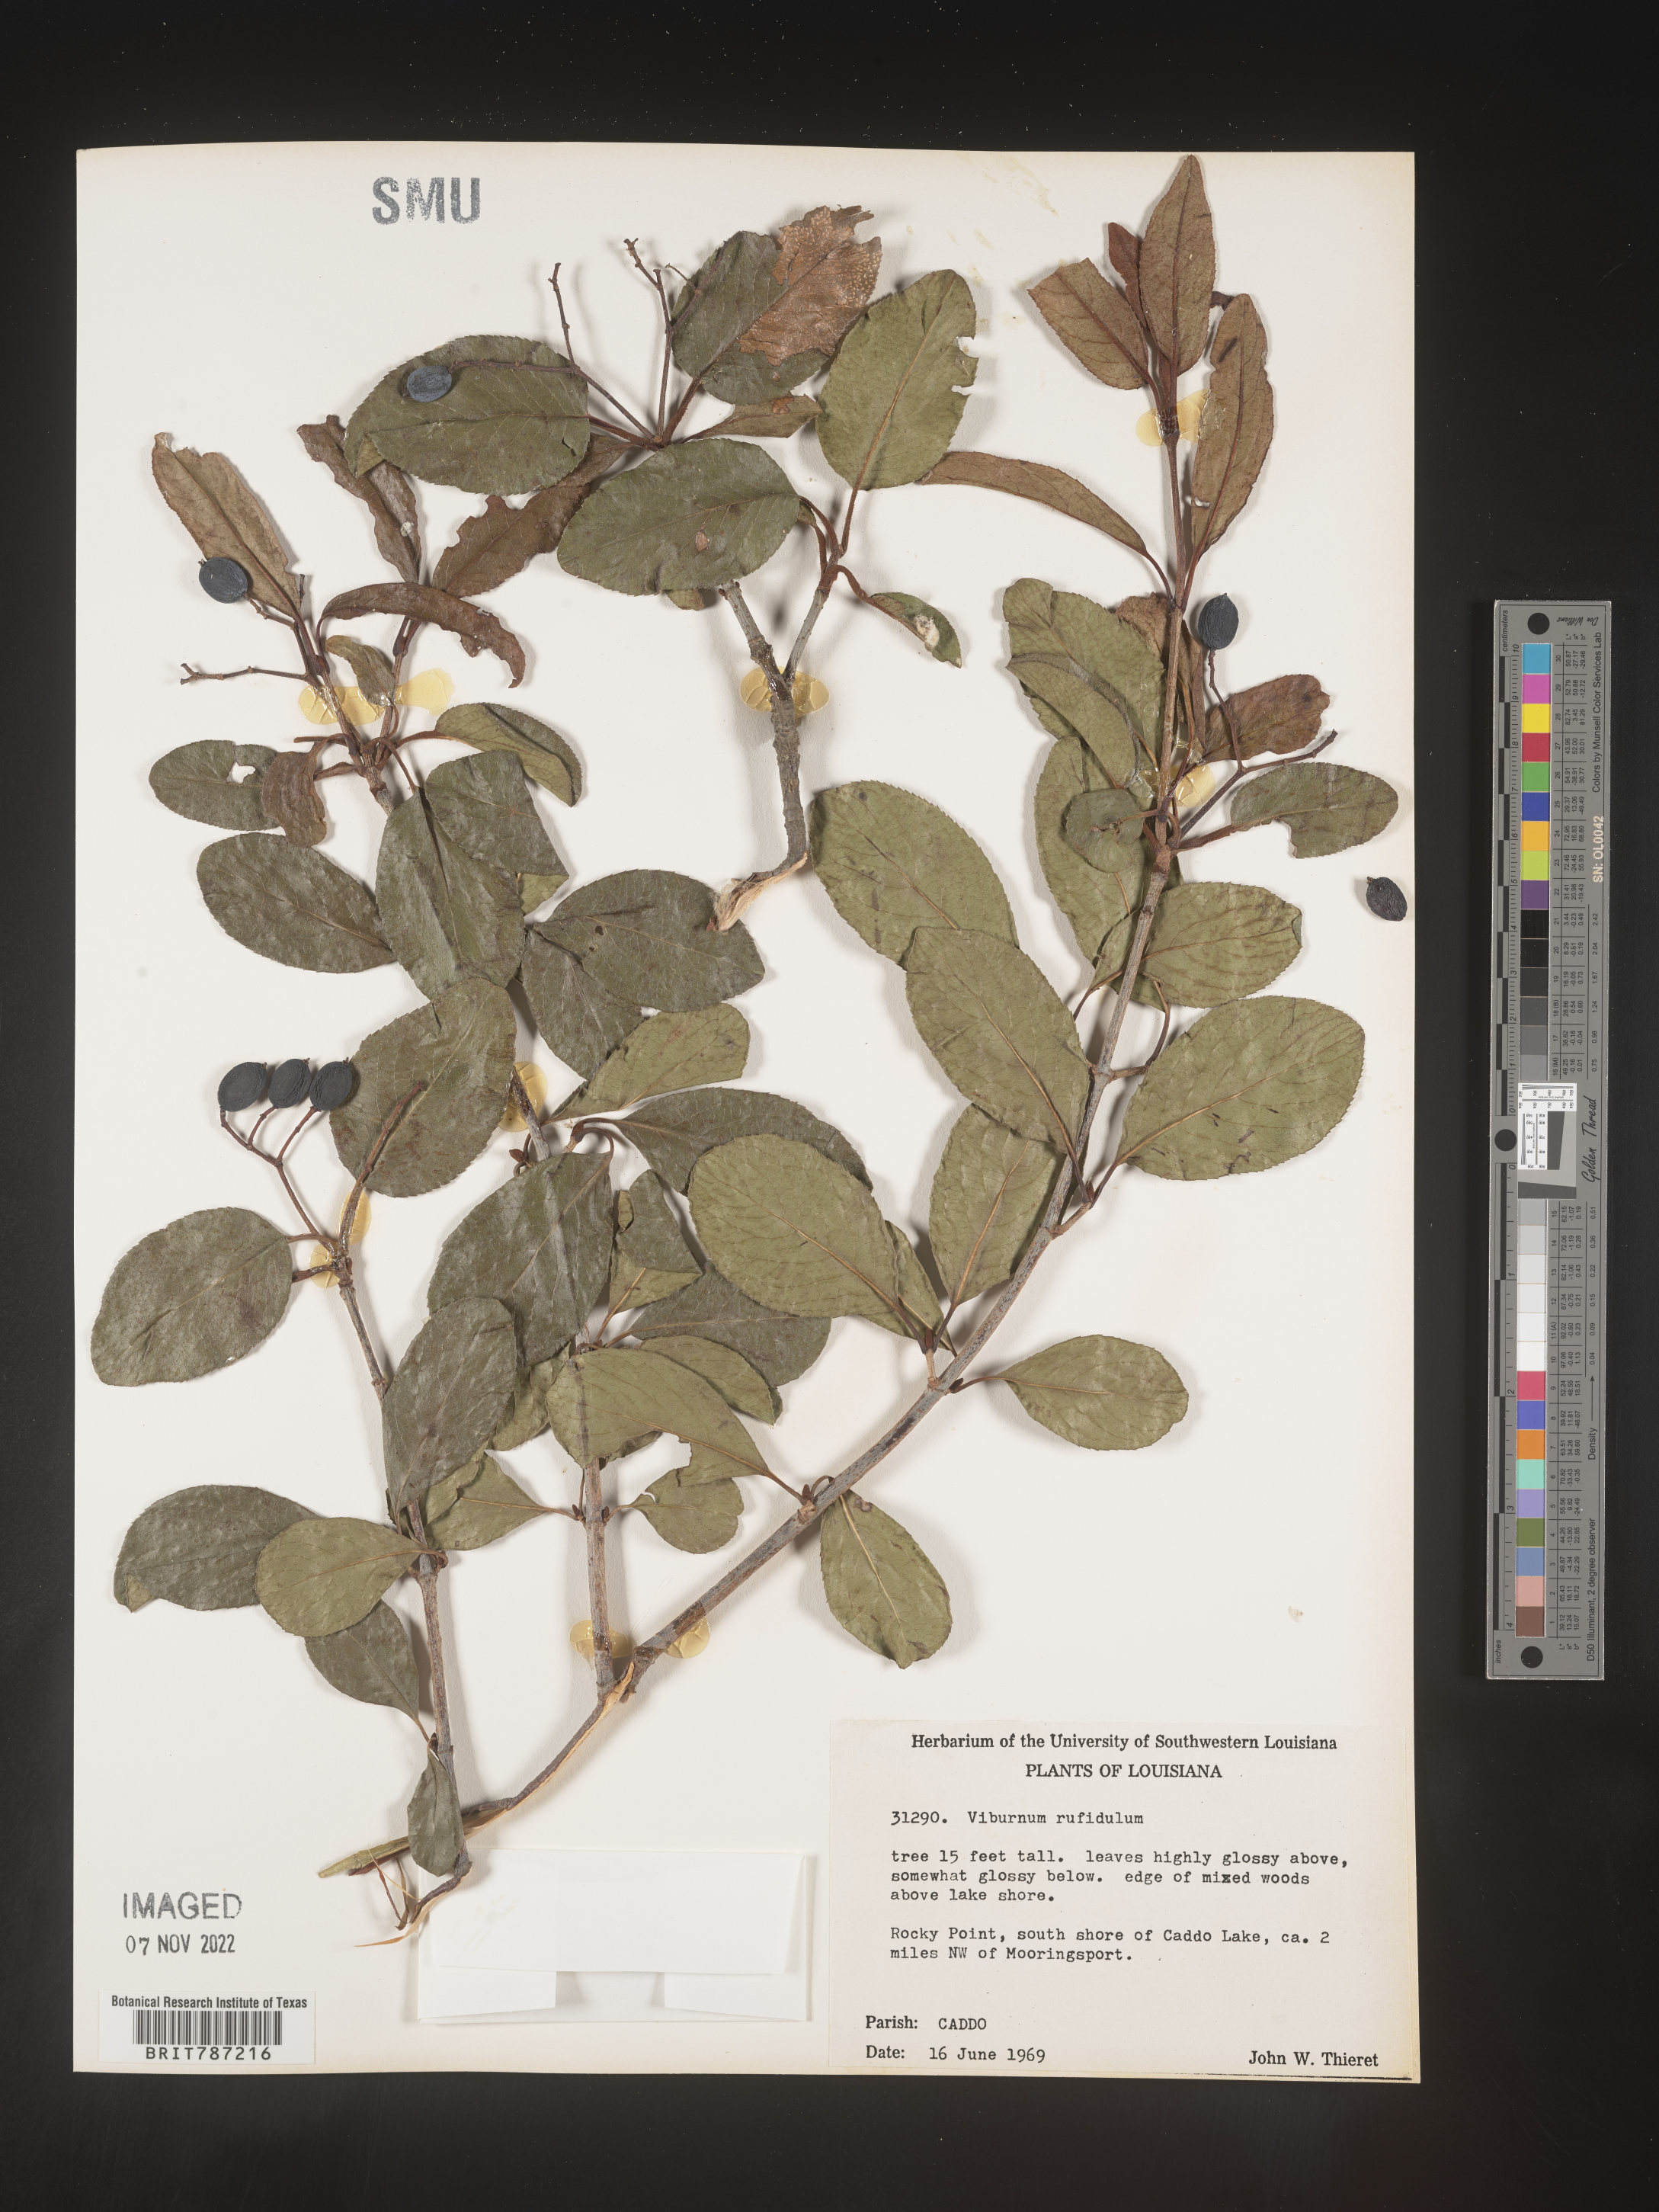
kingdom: Plantae
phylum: Tracheophyta
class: Magnoliopsida
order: Dipsacales
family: Viburnaceae
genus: Viburnum
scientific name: Viburnum rufidulum
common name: Blue haw
